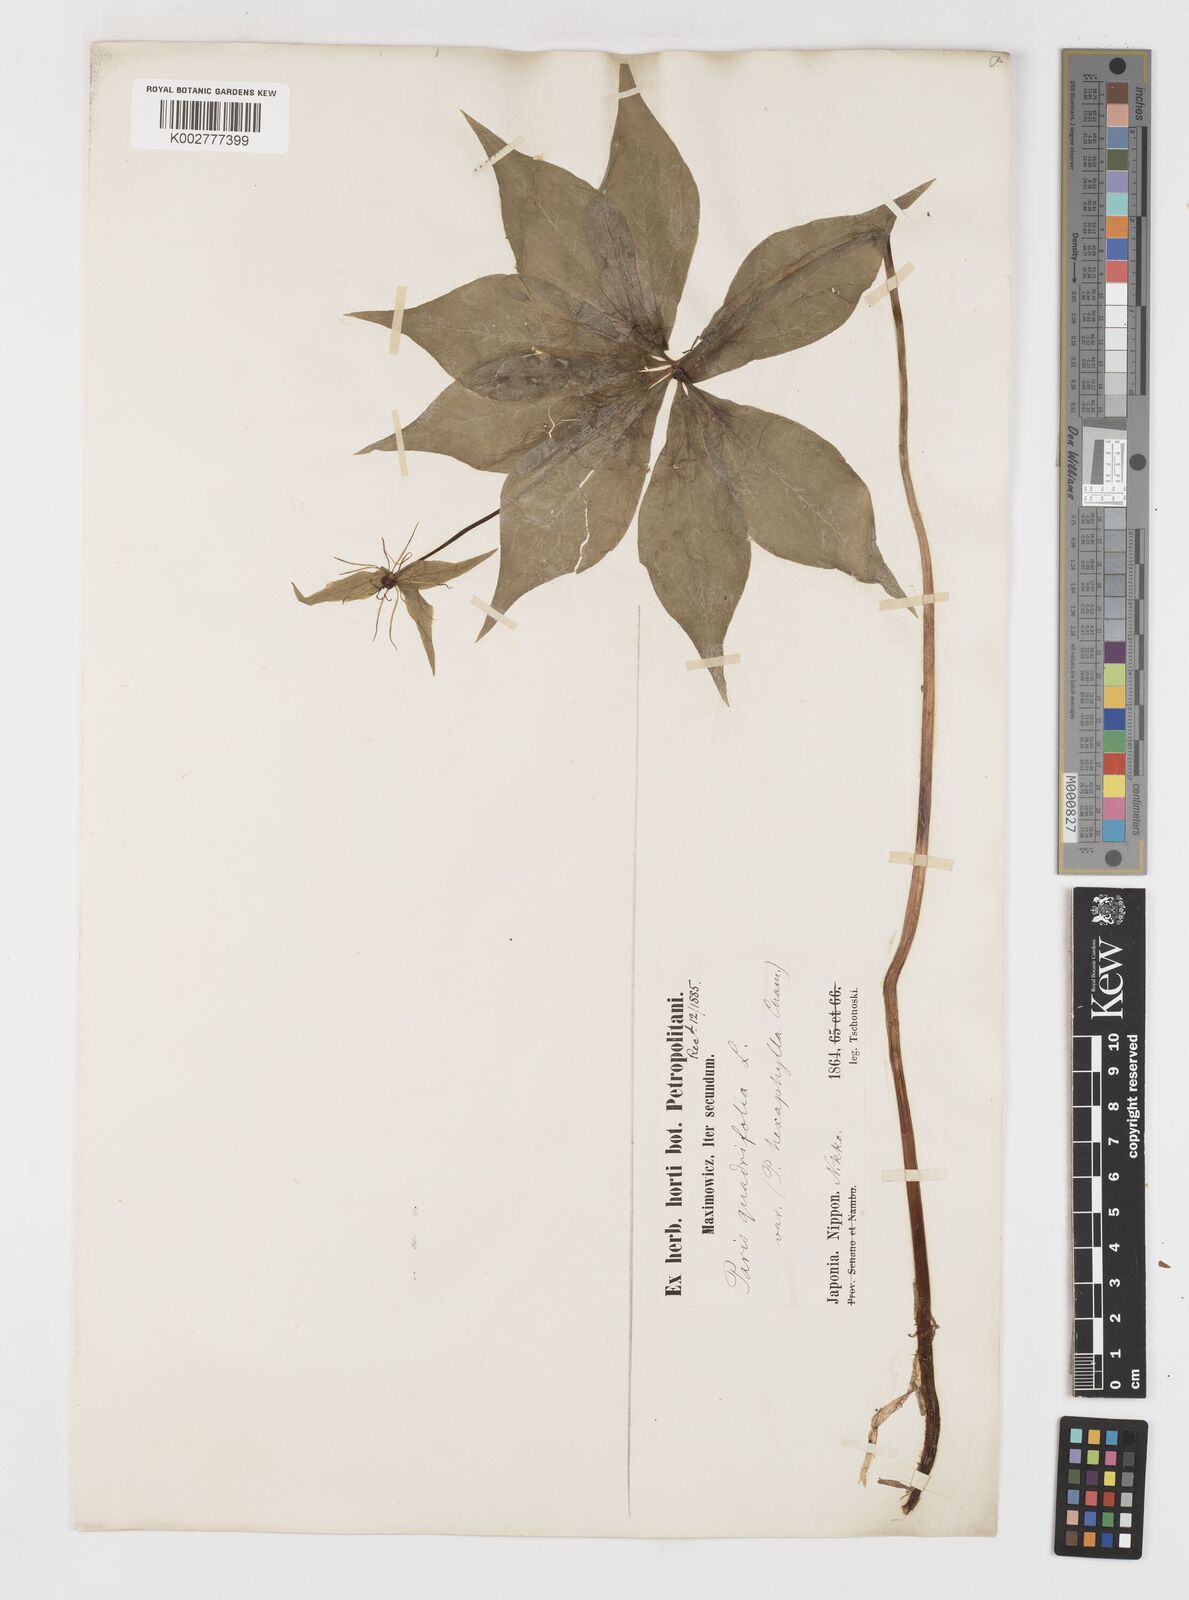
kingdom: Plantae
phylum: Tracheophyta
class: Liliopsida
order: Liliales
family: Melanthiaceae
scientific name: Melanthiaceae
